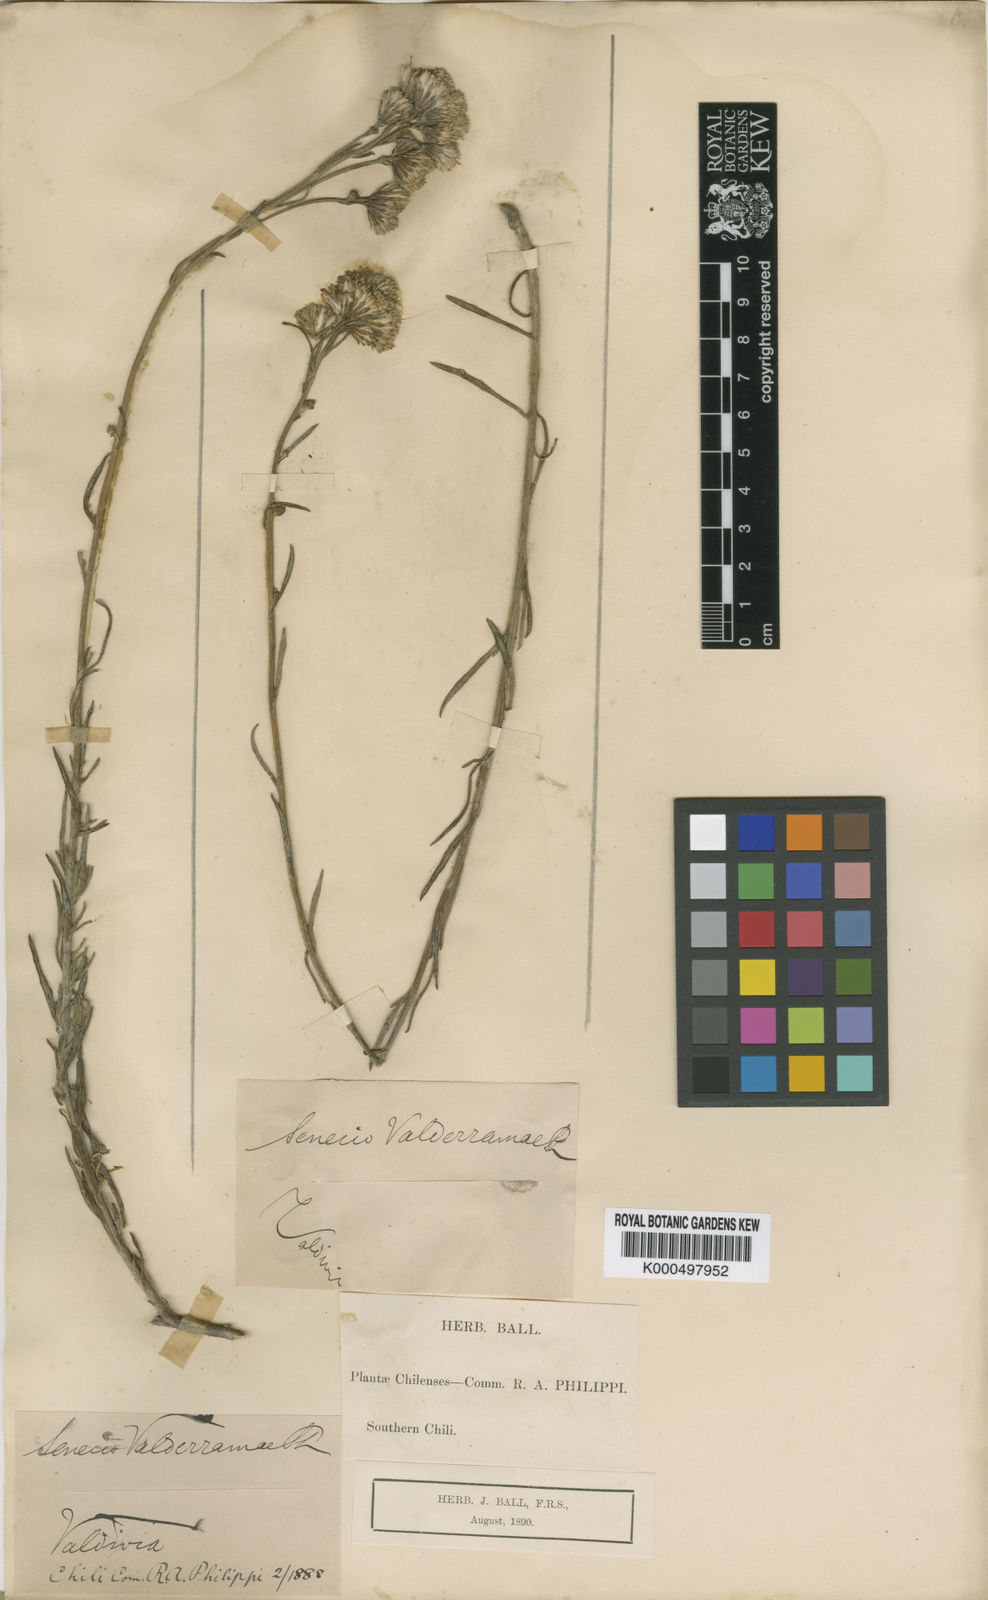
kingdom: Plantae
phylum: Tracheophyta
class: Magnoliopsida
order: Asterales
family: Asteraceae
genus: Senecio
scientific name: Senecio bracteolatus
